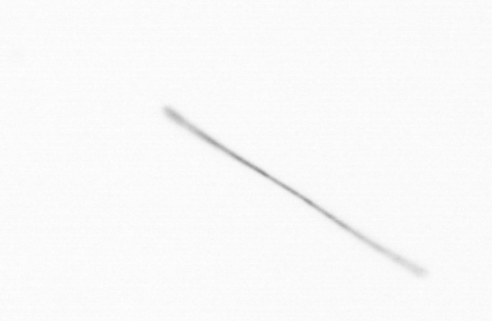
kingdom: Chromista
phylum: Ochrophyta
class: Bacillariophyceae
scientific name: Bacillariophyceae
